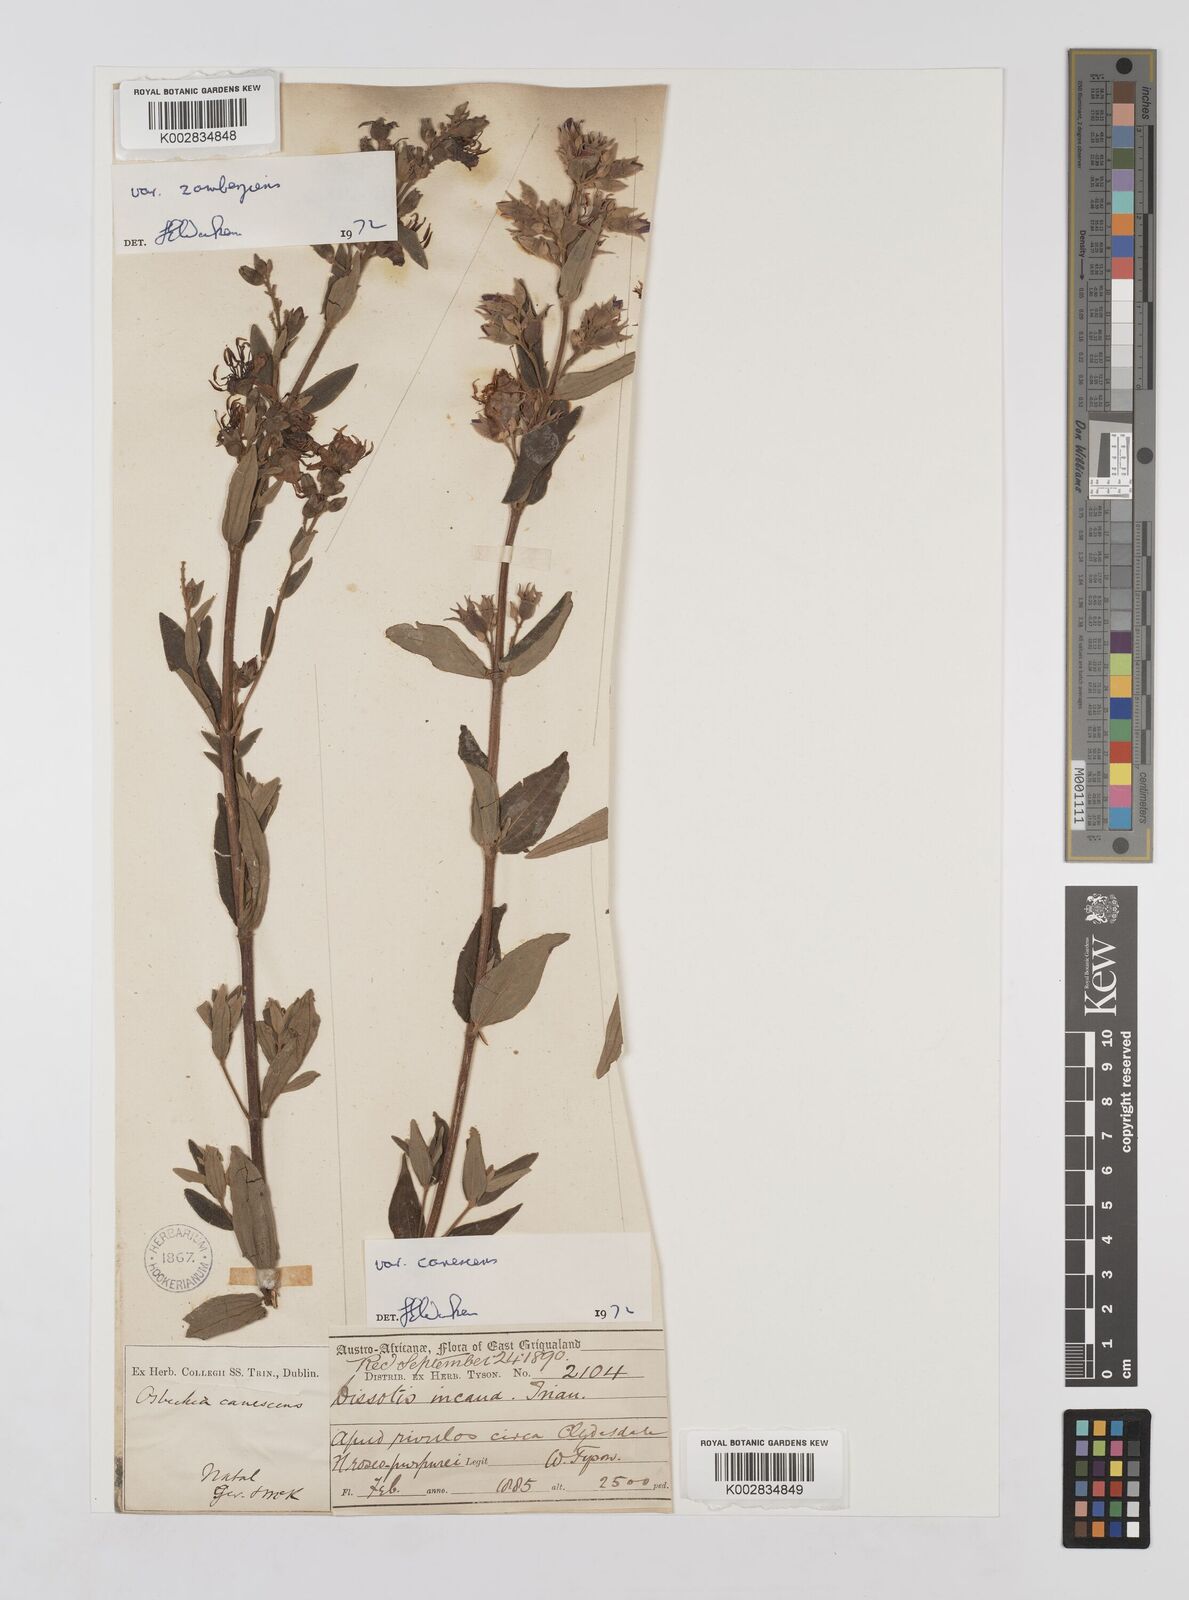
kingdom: Plantae
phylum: Tracheophyta
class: Magnoliopsida
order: Myrtales
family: Melastomataceae
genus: Argyrella
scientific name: Argyrella canescens
